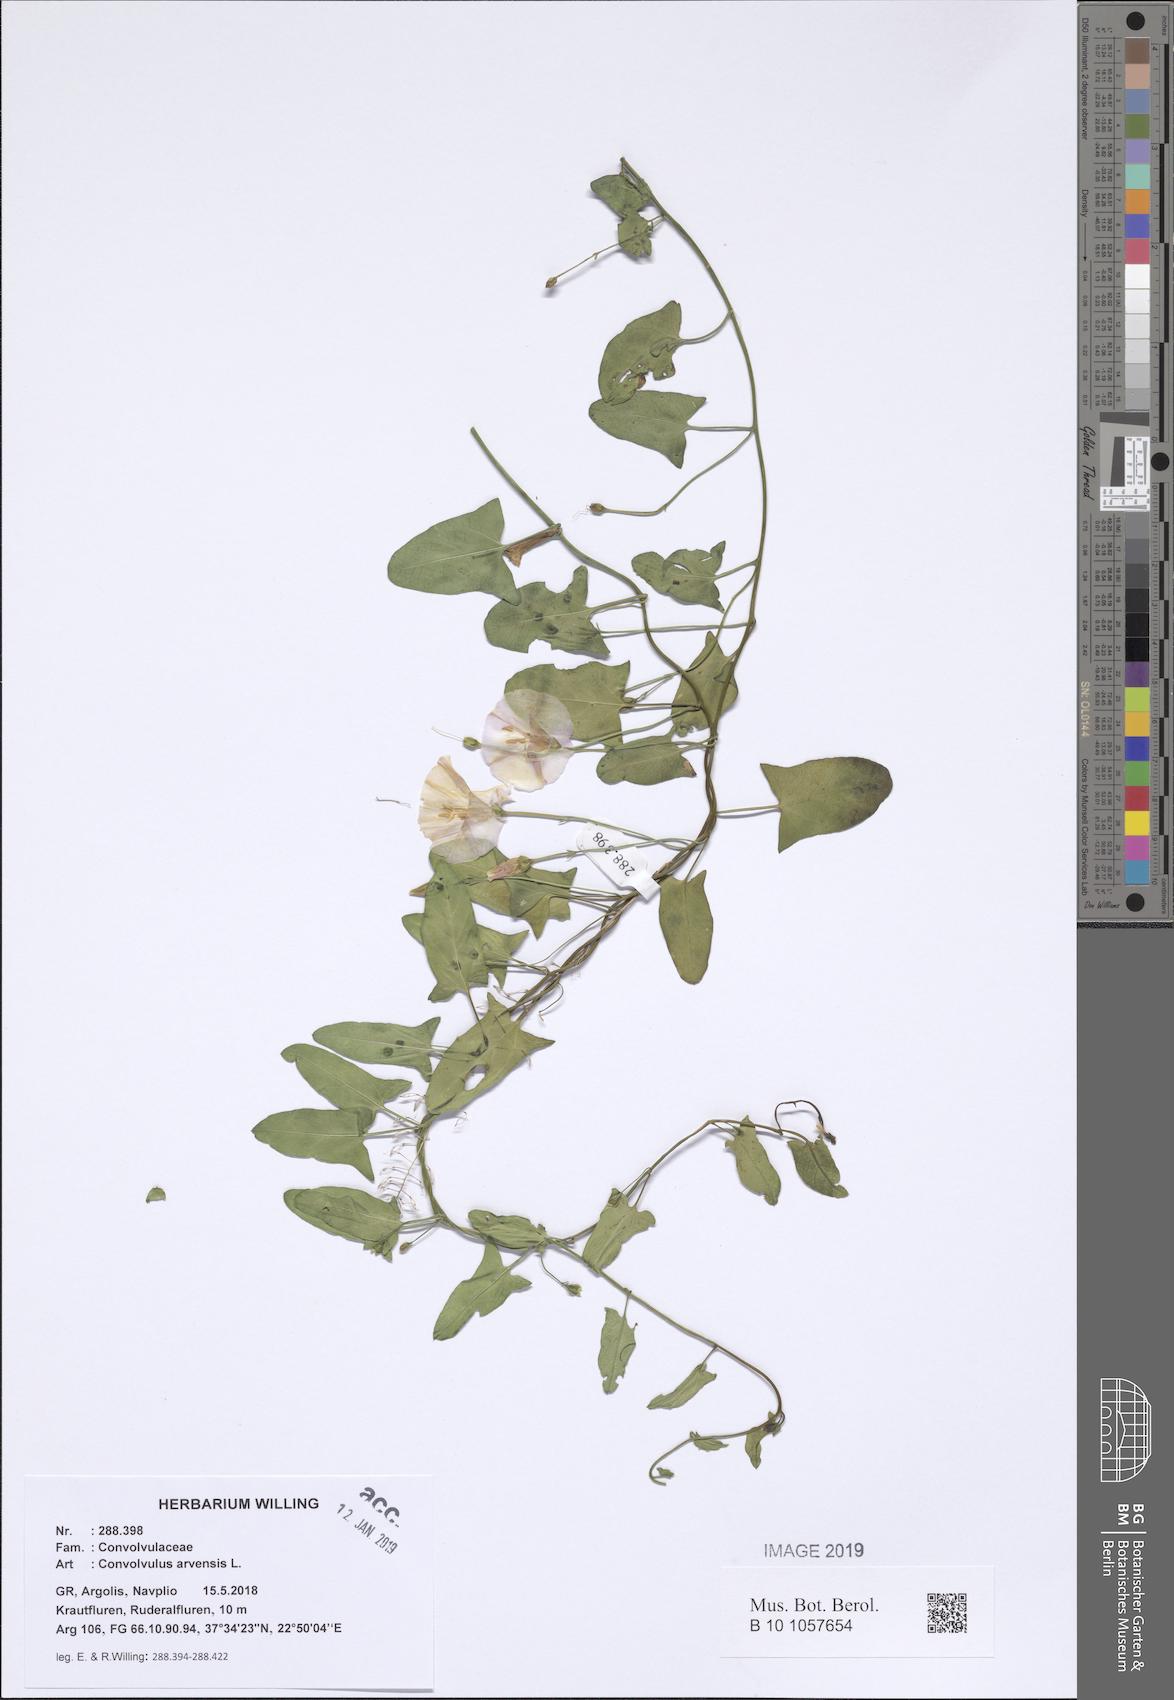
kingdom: Plantae
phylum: Tracheophyta
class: Magnoliopsida
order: Solanales
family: Convolvulaceae
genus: Convolvulus
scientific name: Convolvulus arvensis
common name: Field bindweed
